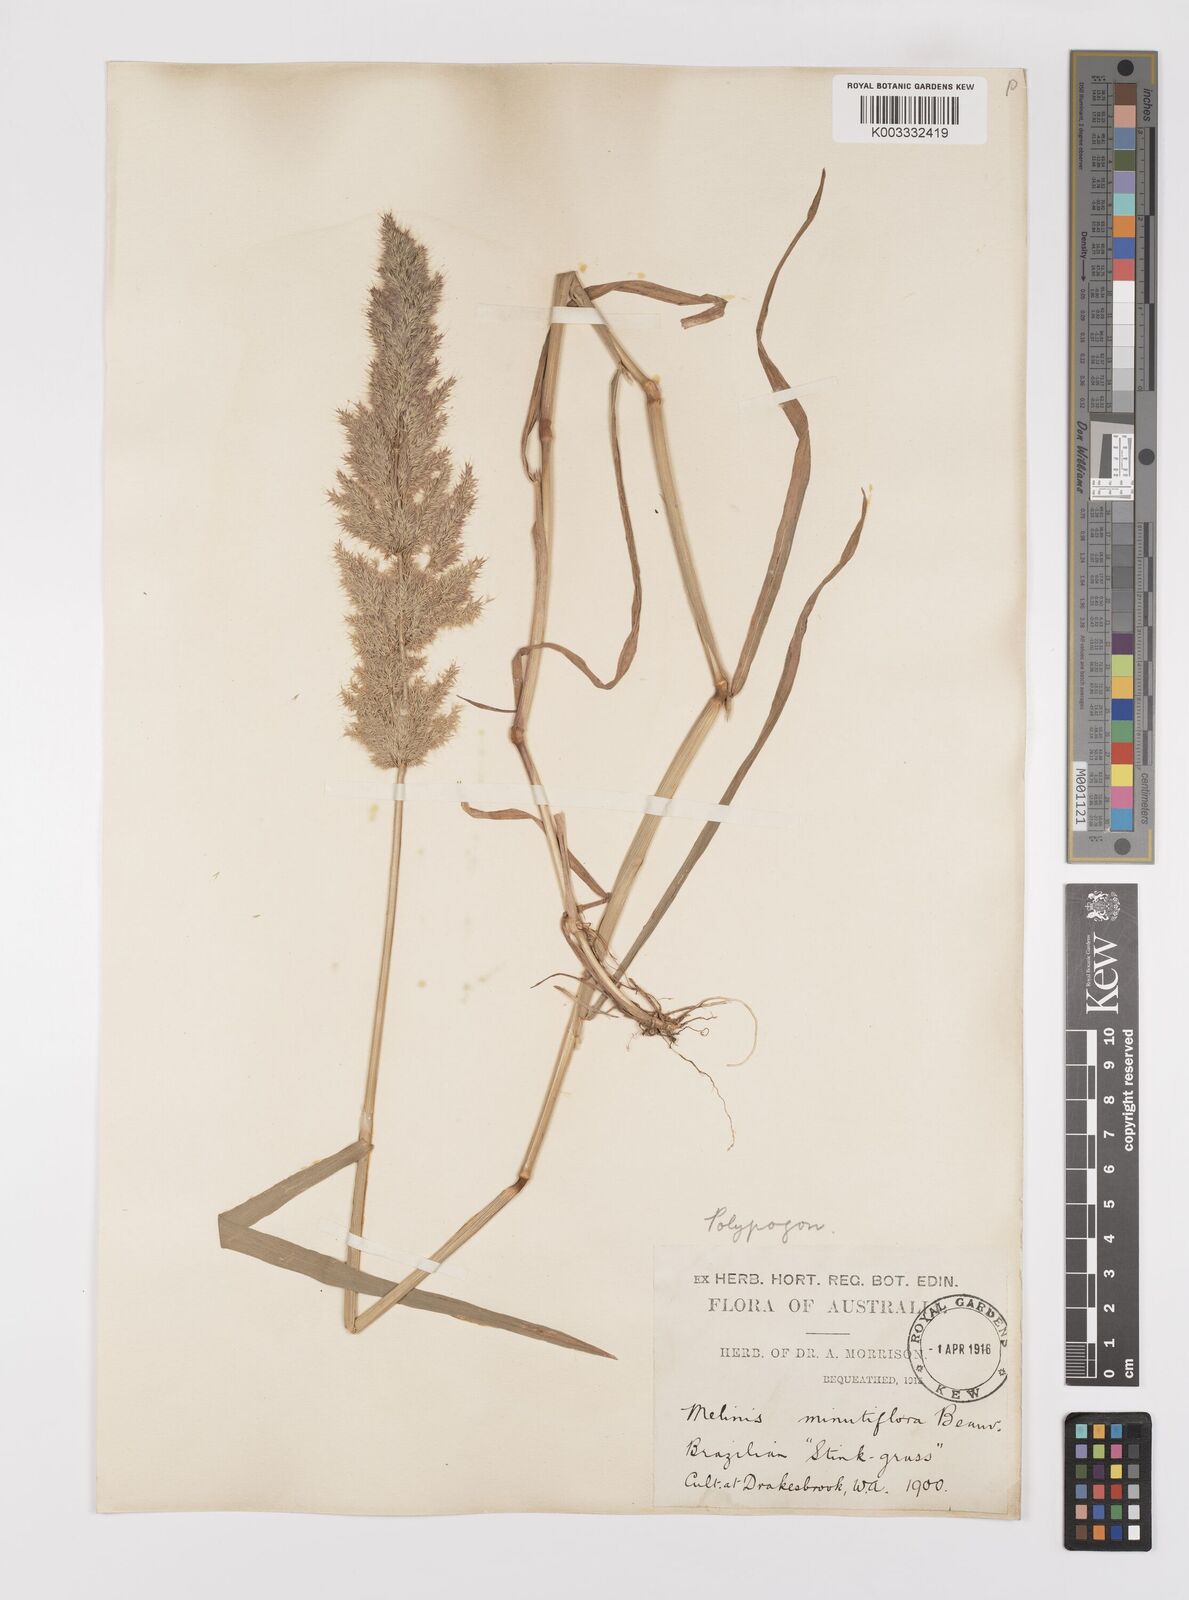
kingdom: Plantae
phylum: Tracheophyta
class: Liliopsida
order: Poales
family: Poaceae
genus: Polypogon
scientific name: Polypogon fugax
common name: Asia minor bluegrass
